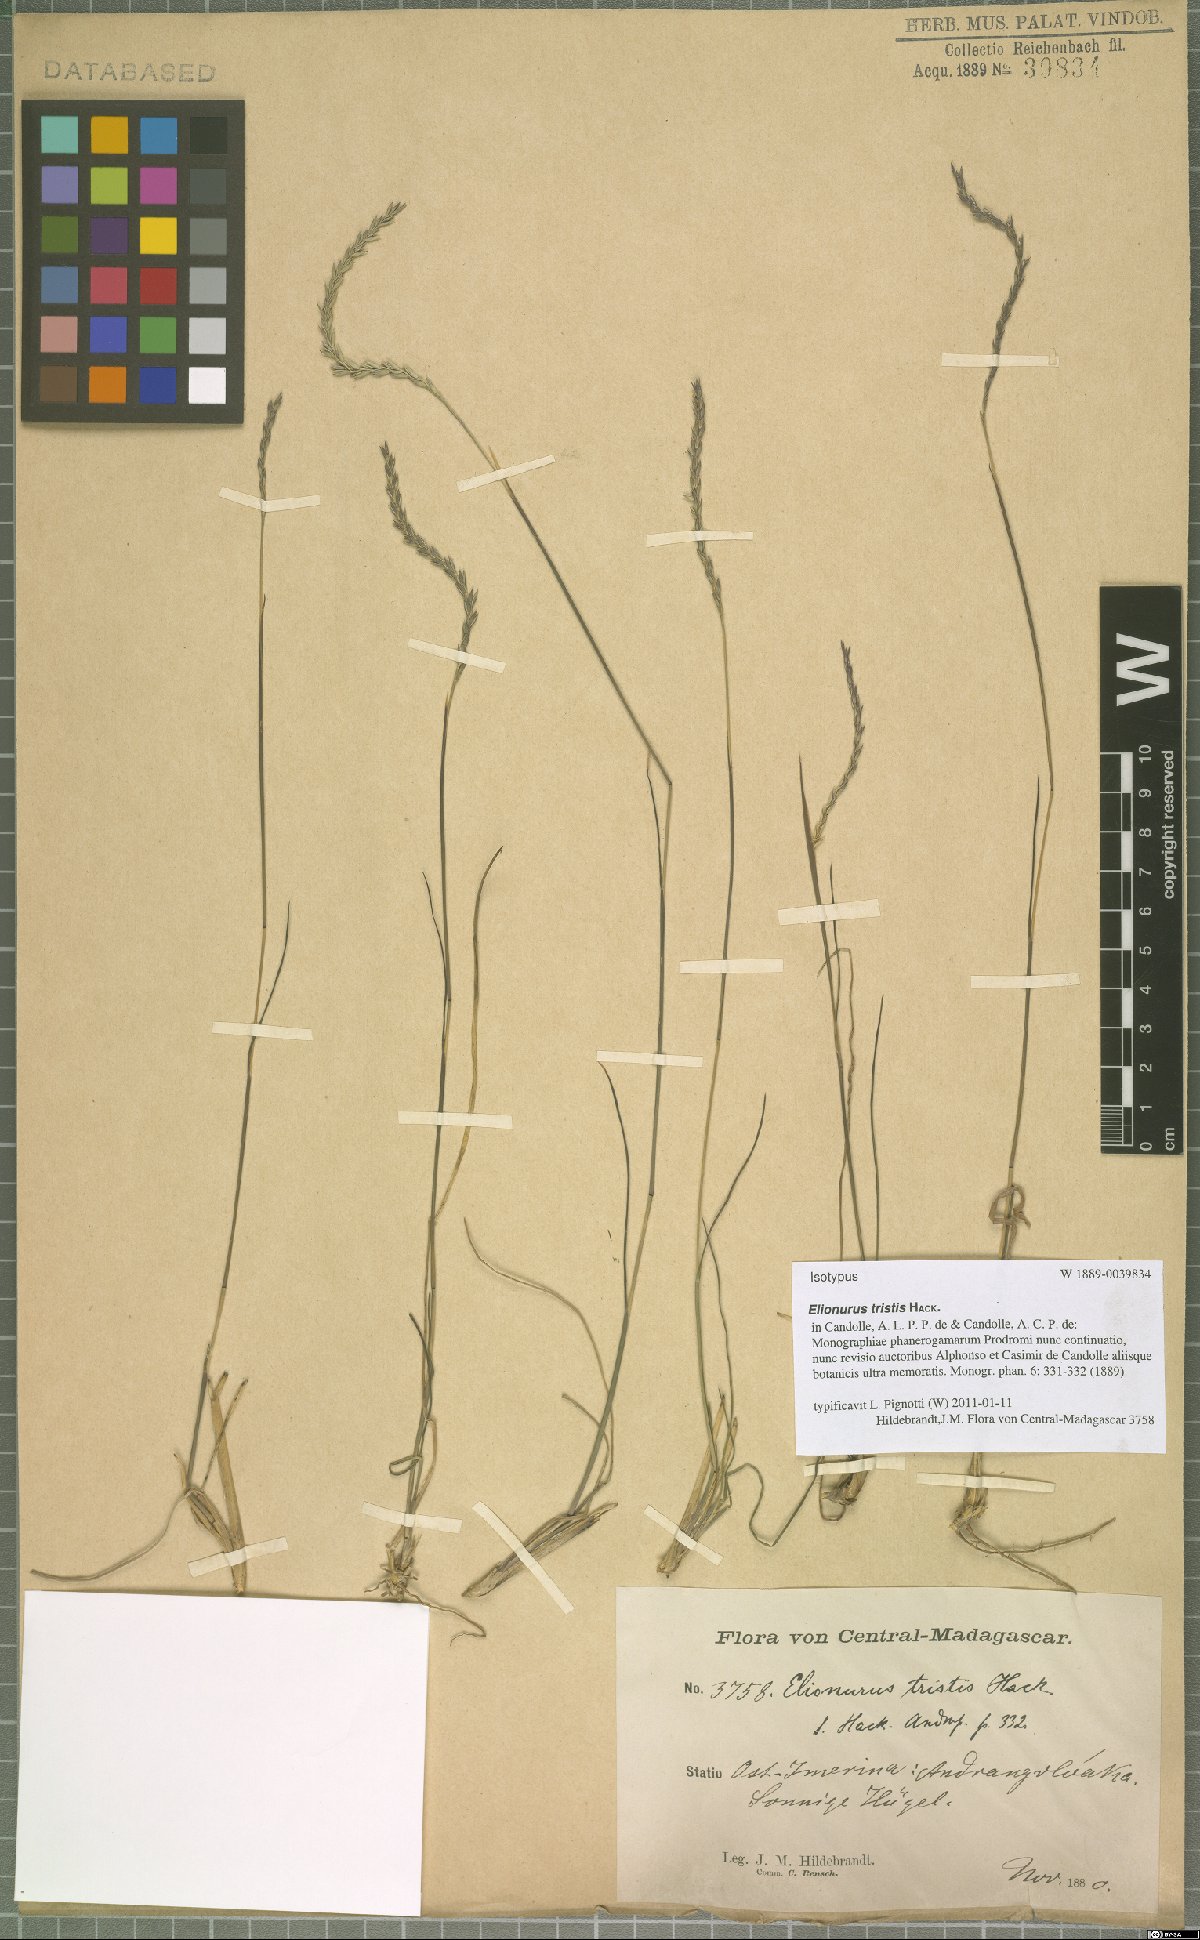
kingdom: Plantae
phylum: Tracheophyta
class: Liliopsida
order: Poales
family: Poaceae
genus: Elionurus
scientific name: Elionurus tristis
